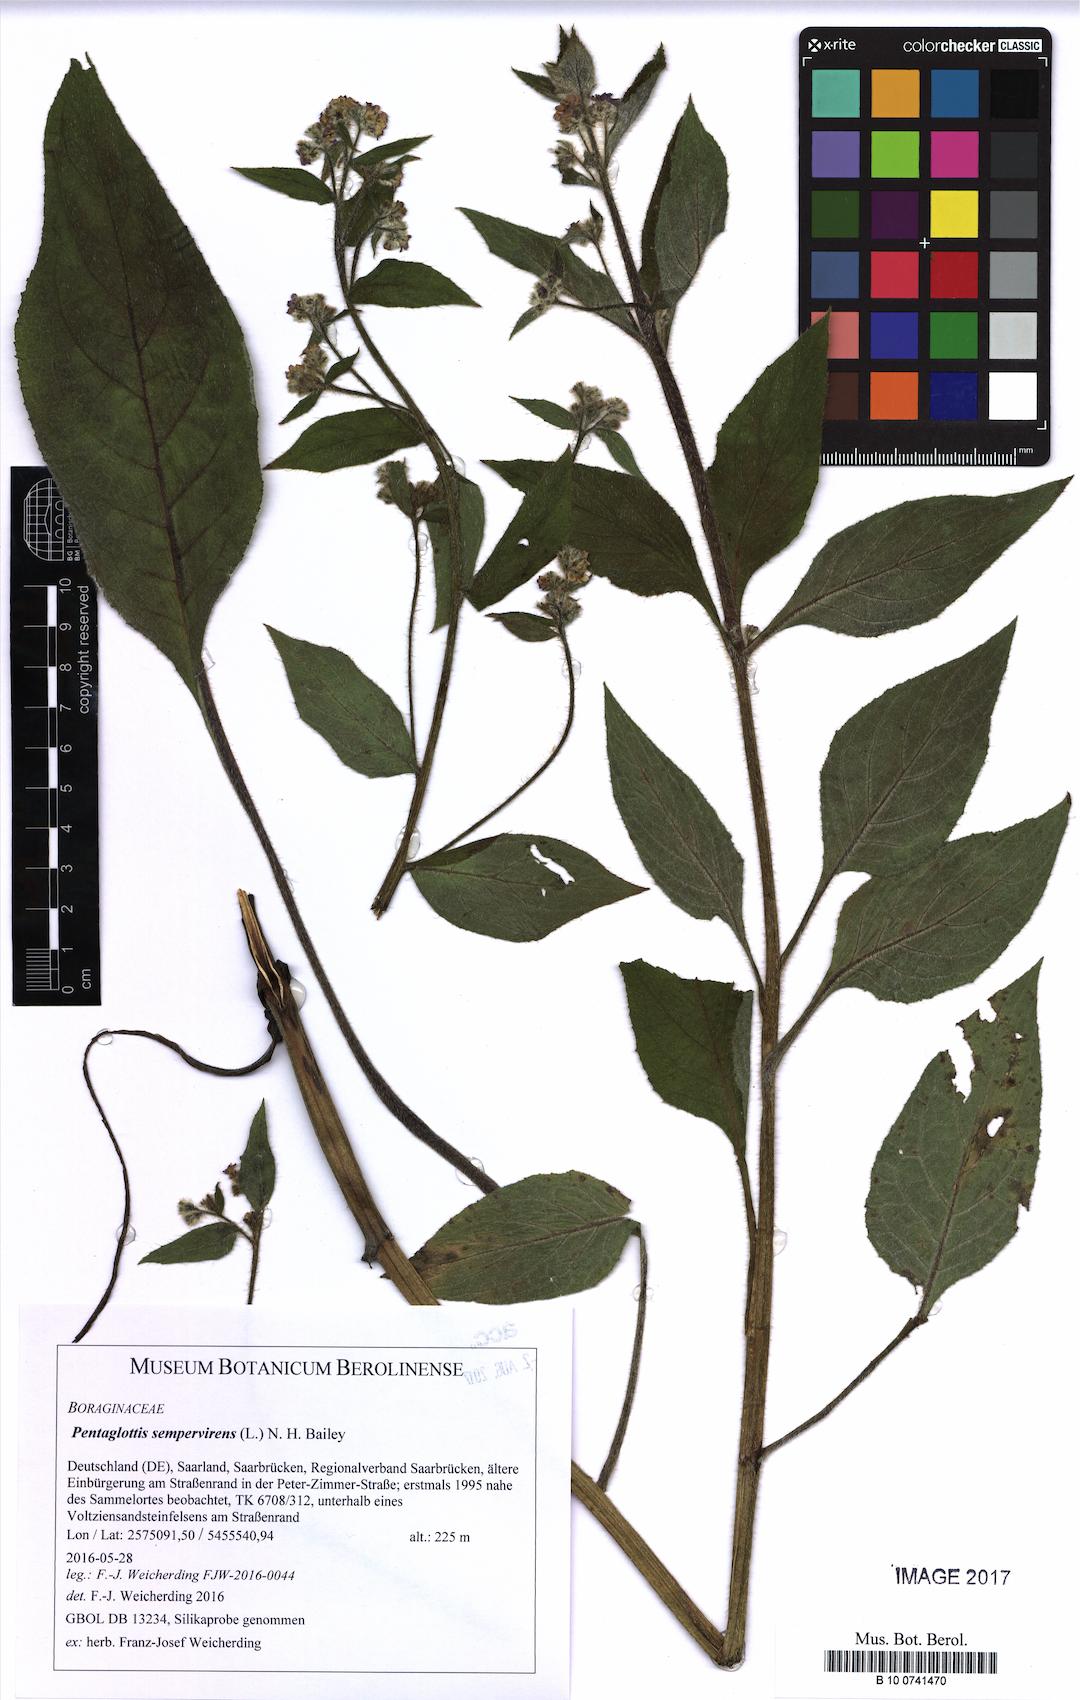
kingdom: Plantae
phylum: Tracheophyta
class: Magnoliopsida
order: Boraginales
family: Boraginaceae
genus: Pentaglottis
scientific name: Pentaglottis sempervirens
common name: Green alkanet
